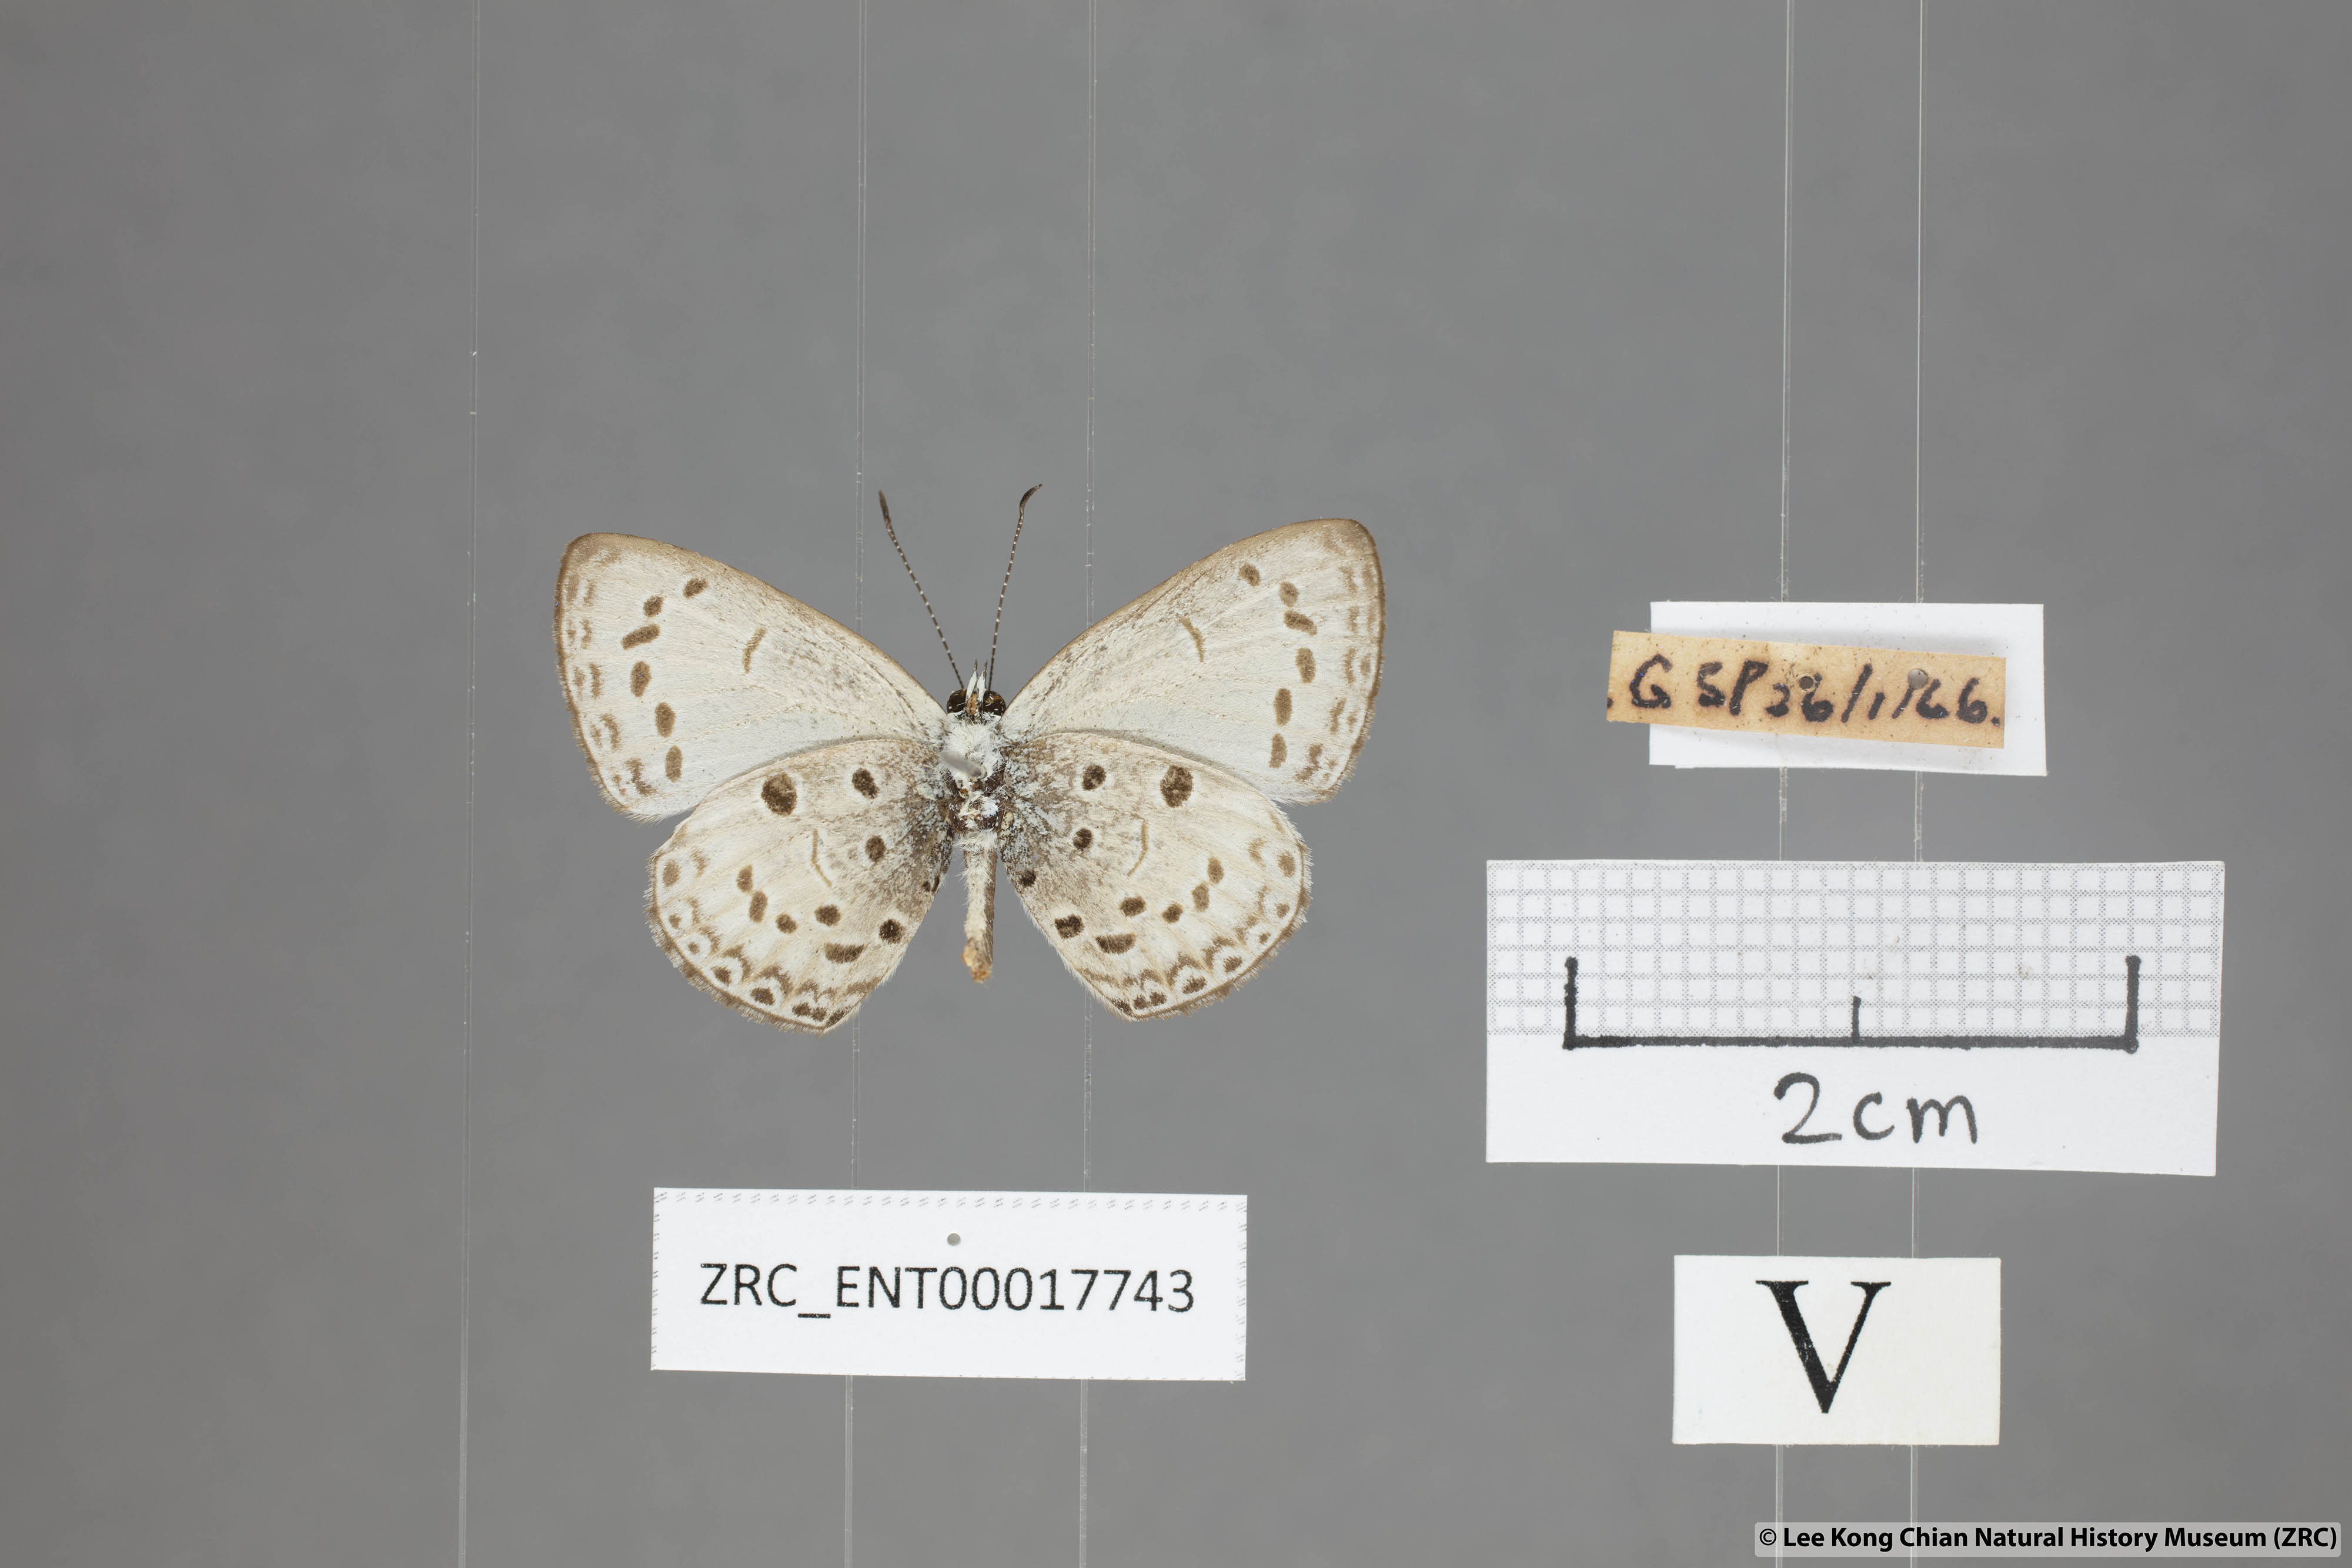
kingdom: Animalia
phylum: Arthropoda
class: Insecta
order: Lepidoptera
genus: Plautella
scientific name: Plautella
